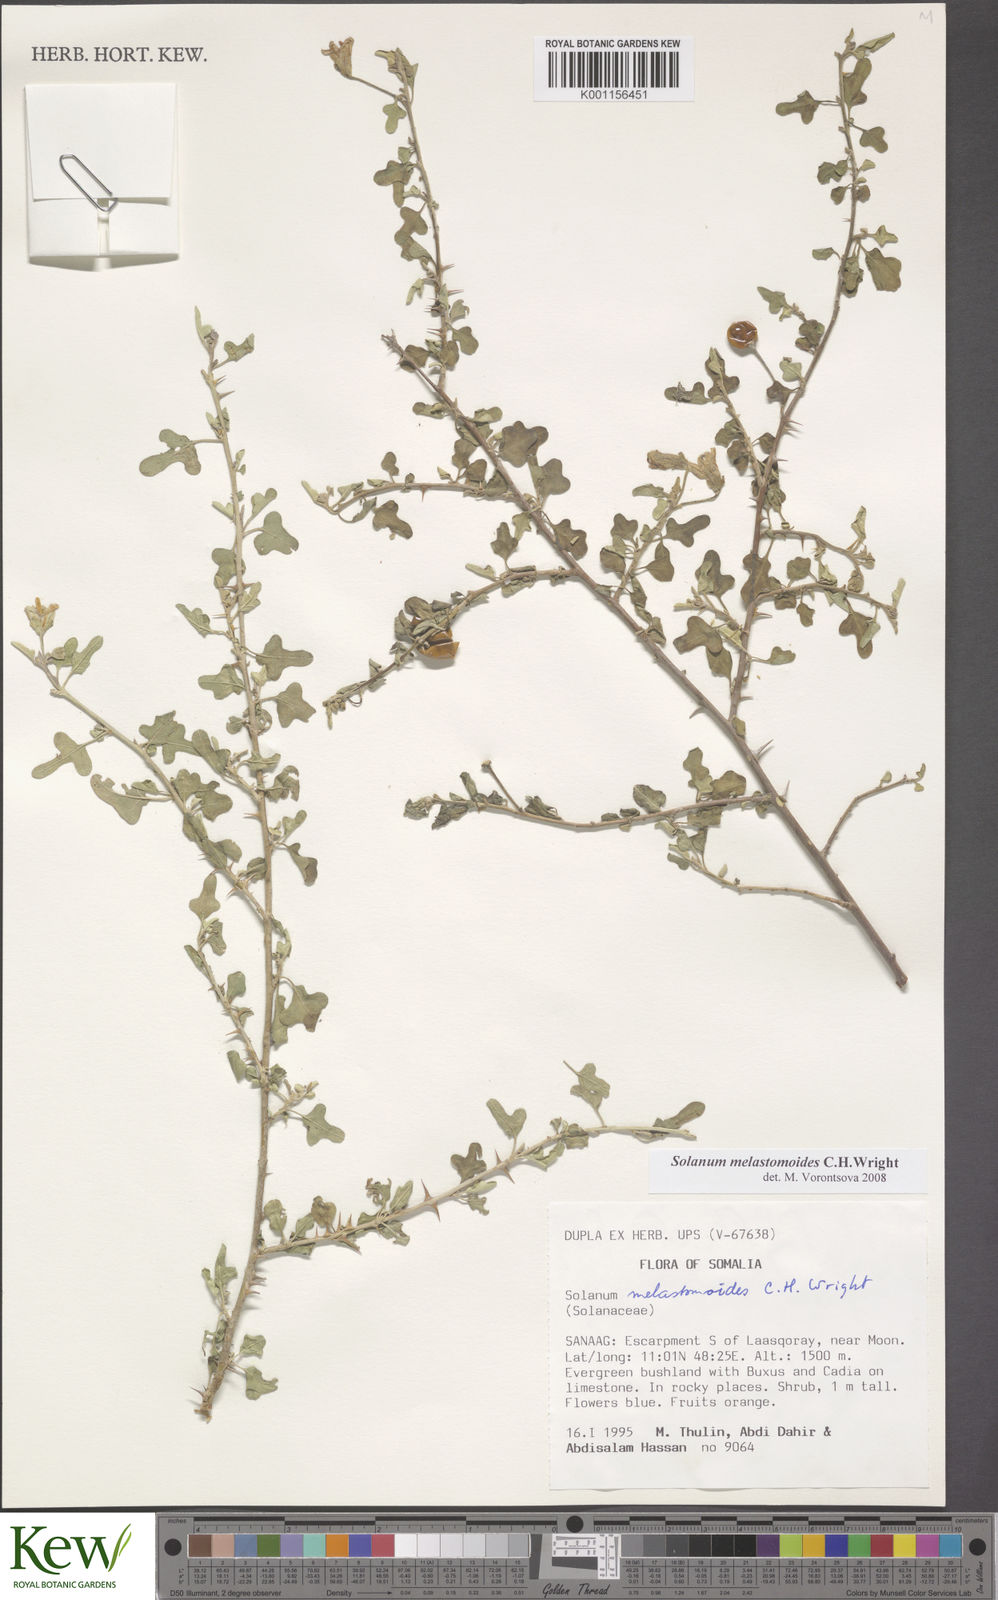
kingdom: Plantae
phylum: Tracheophyta
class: Magnoliopsida
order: Solanales
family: Solanaceae
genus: Solanum
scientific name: Solanum melastomoides
